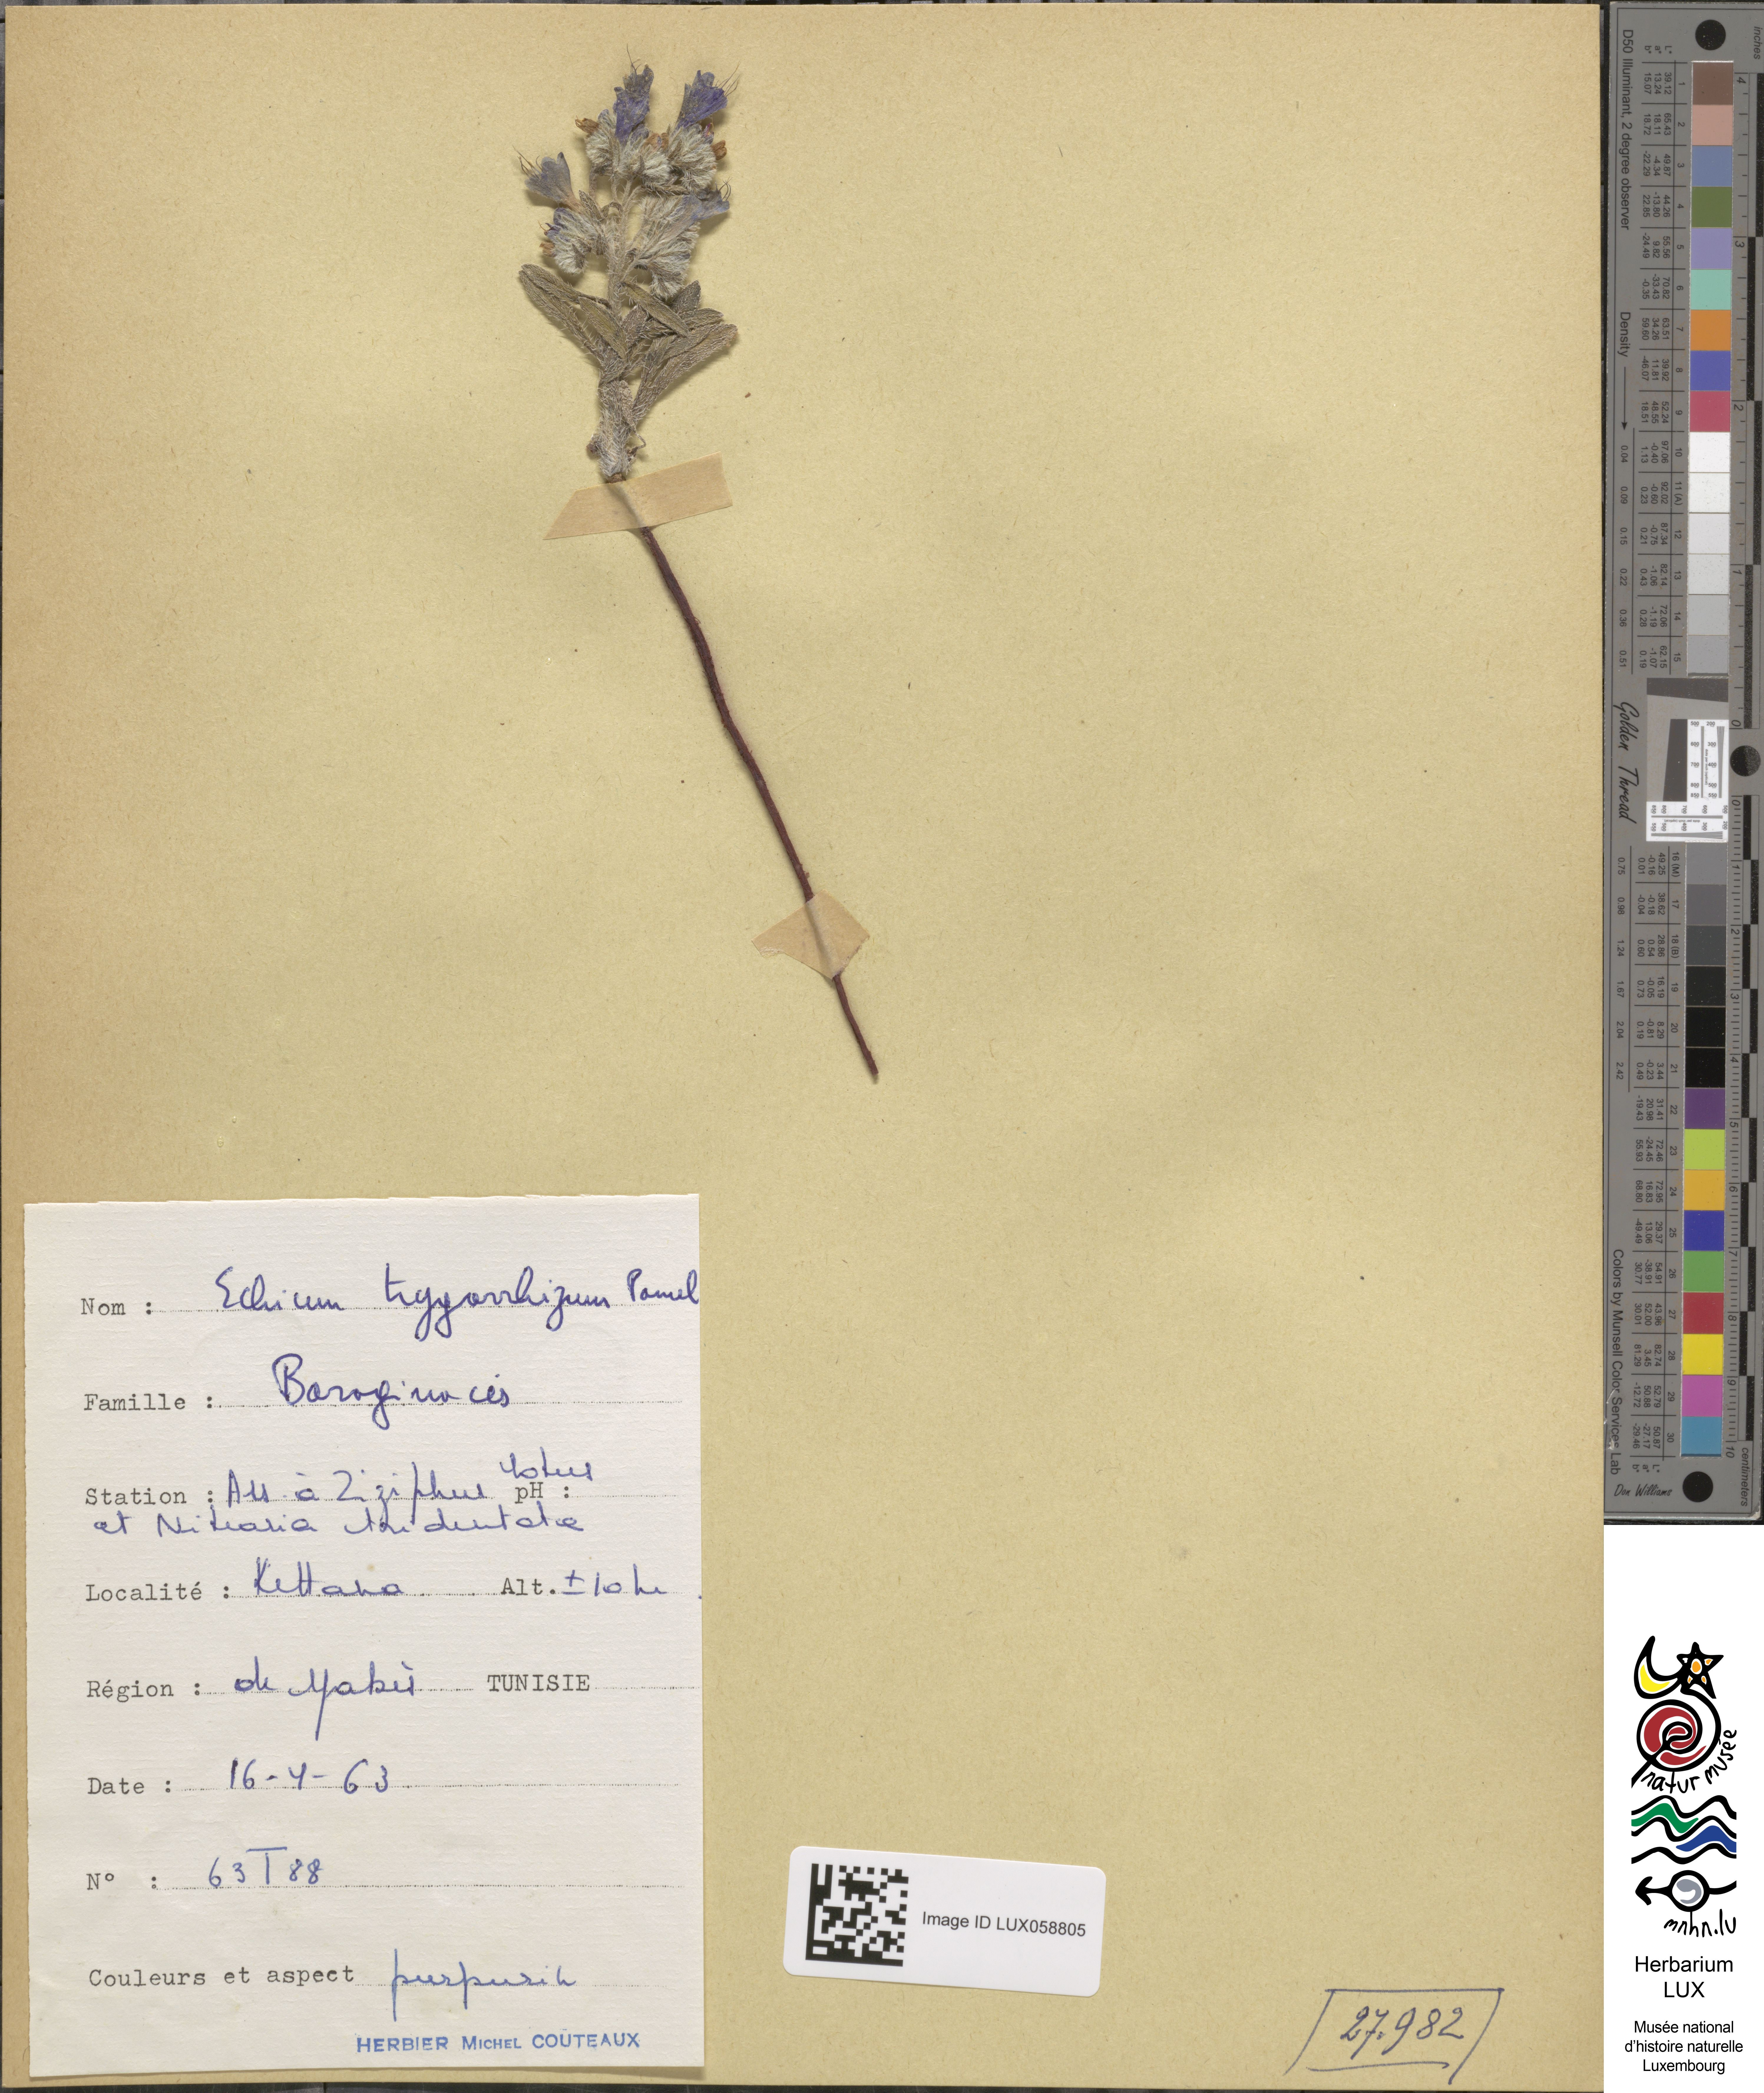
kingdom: Plantae
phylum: Tracheophyta
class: Magnoliopsida
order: Boraginales
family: Boraginaceae
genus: Echium
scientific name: Echium trygorrhizum
